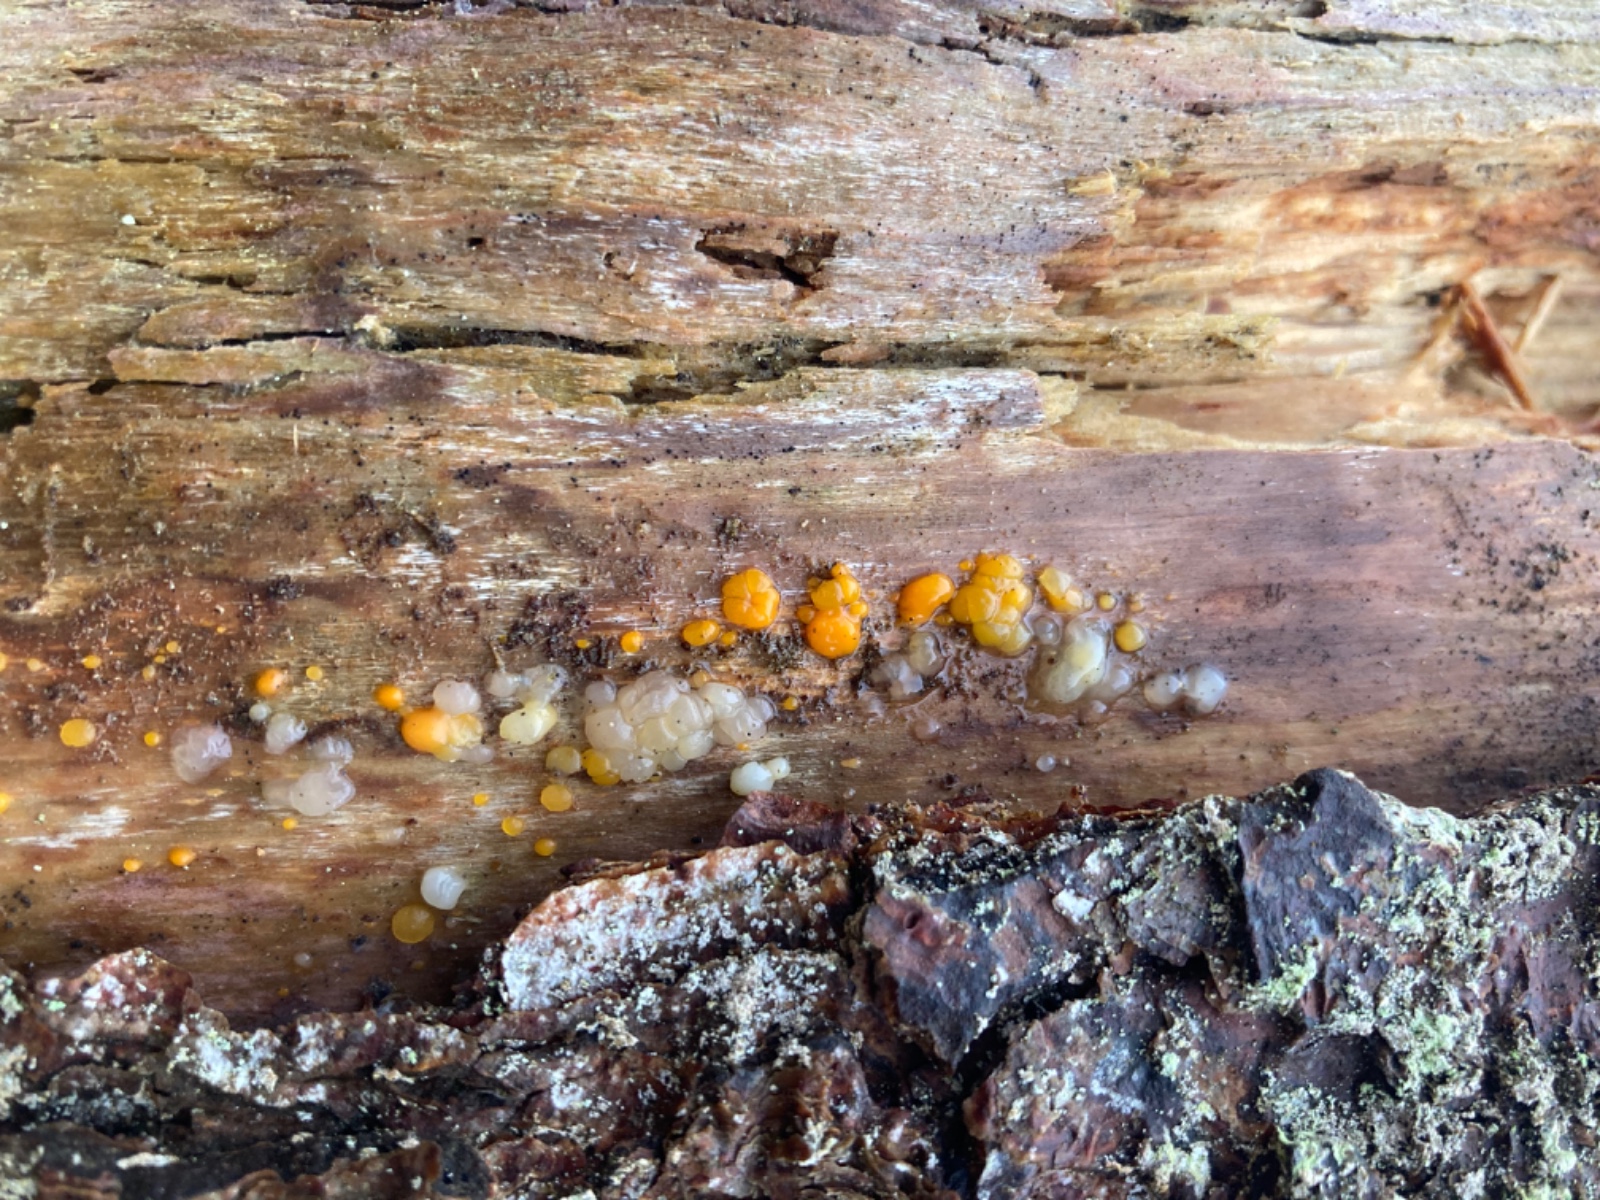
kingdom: Fungi
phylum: Basidiomycota
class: Dacrymycetes
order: Dacrymycetales
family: Dacrymycetaceae
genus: Dacrymyces
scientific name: Dacrymyces stillatus
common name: almindelig tåresvamp
